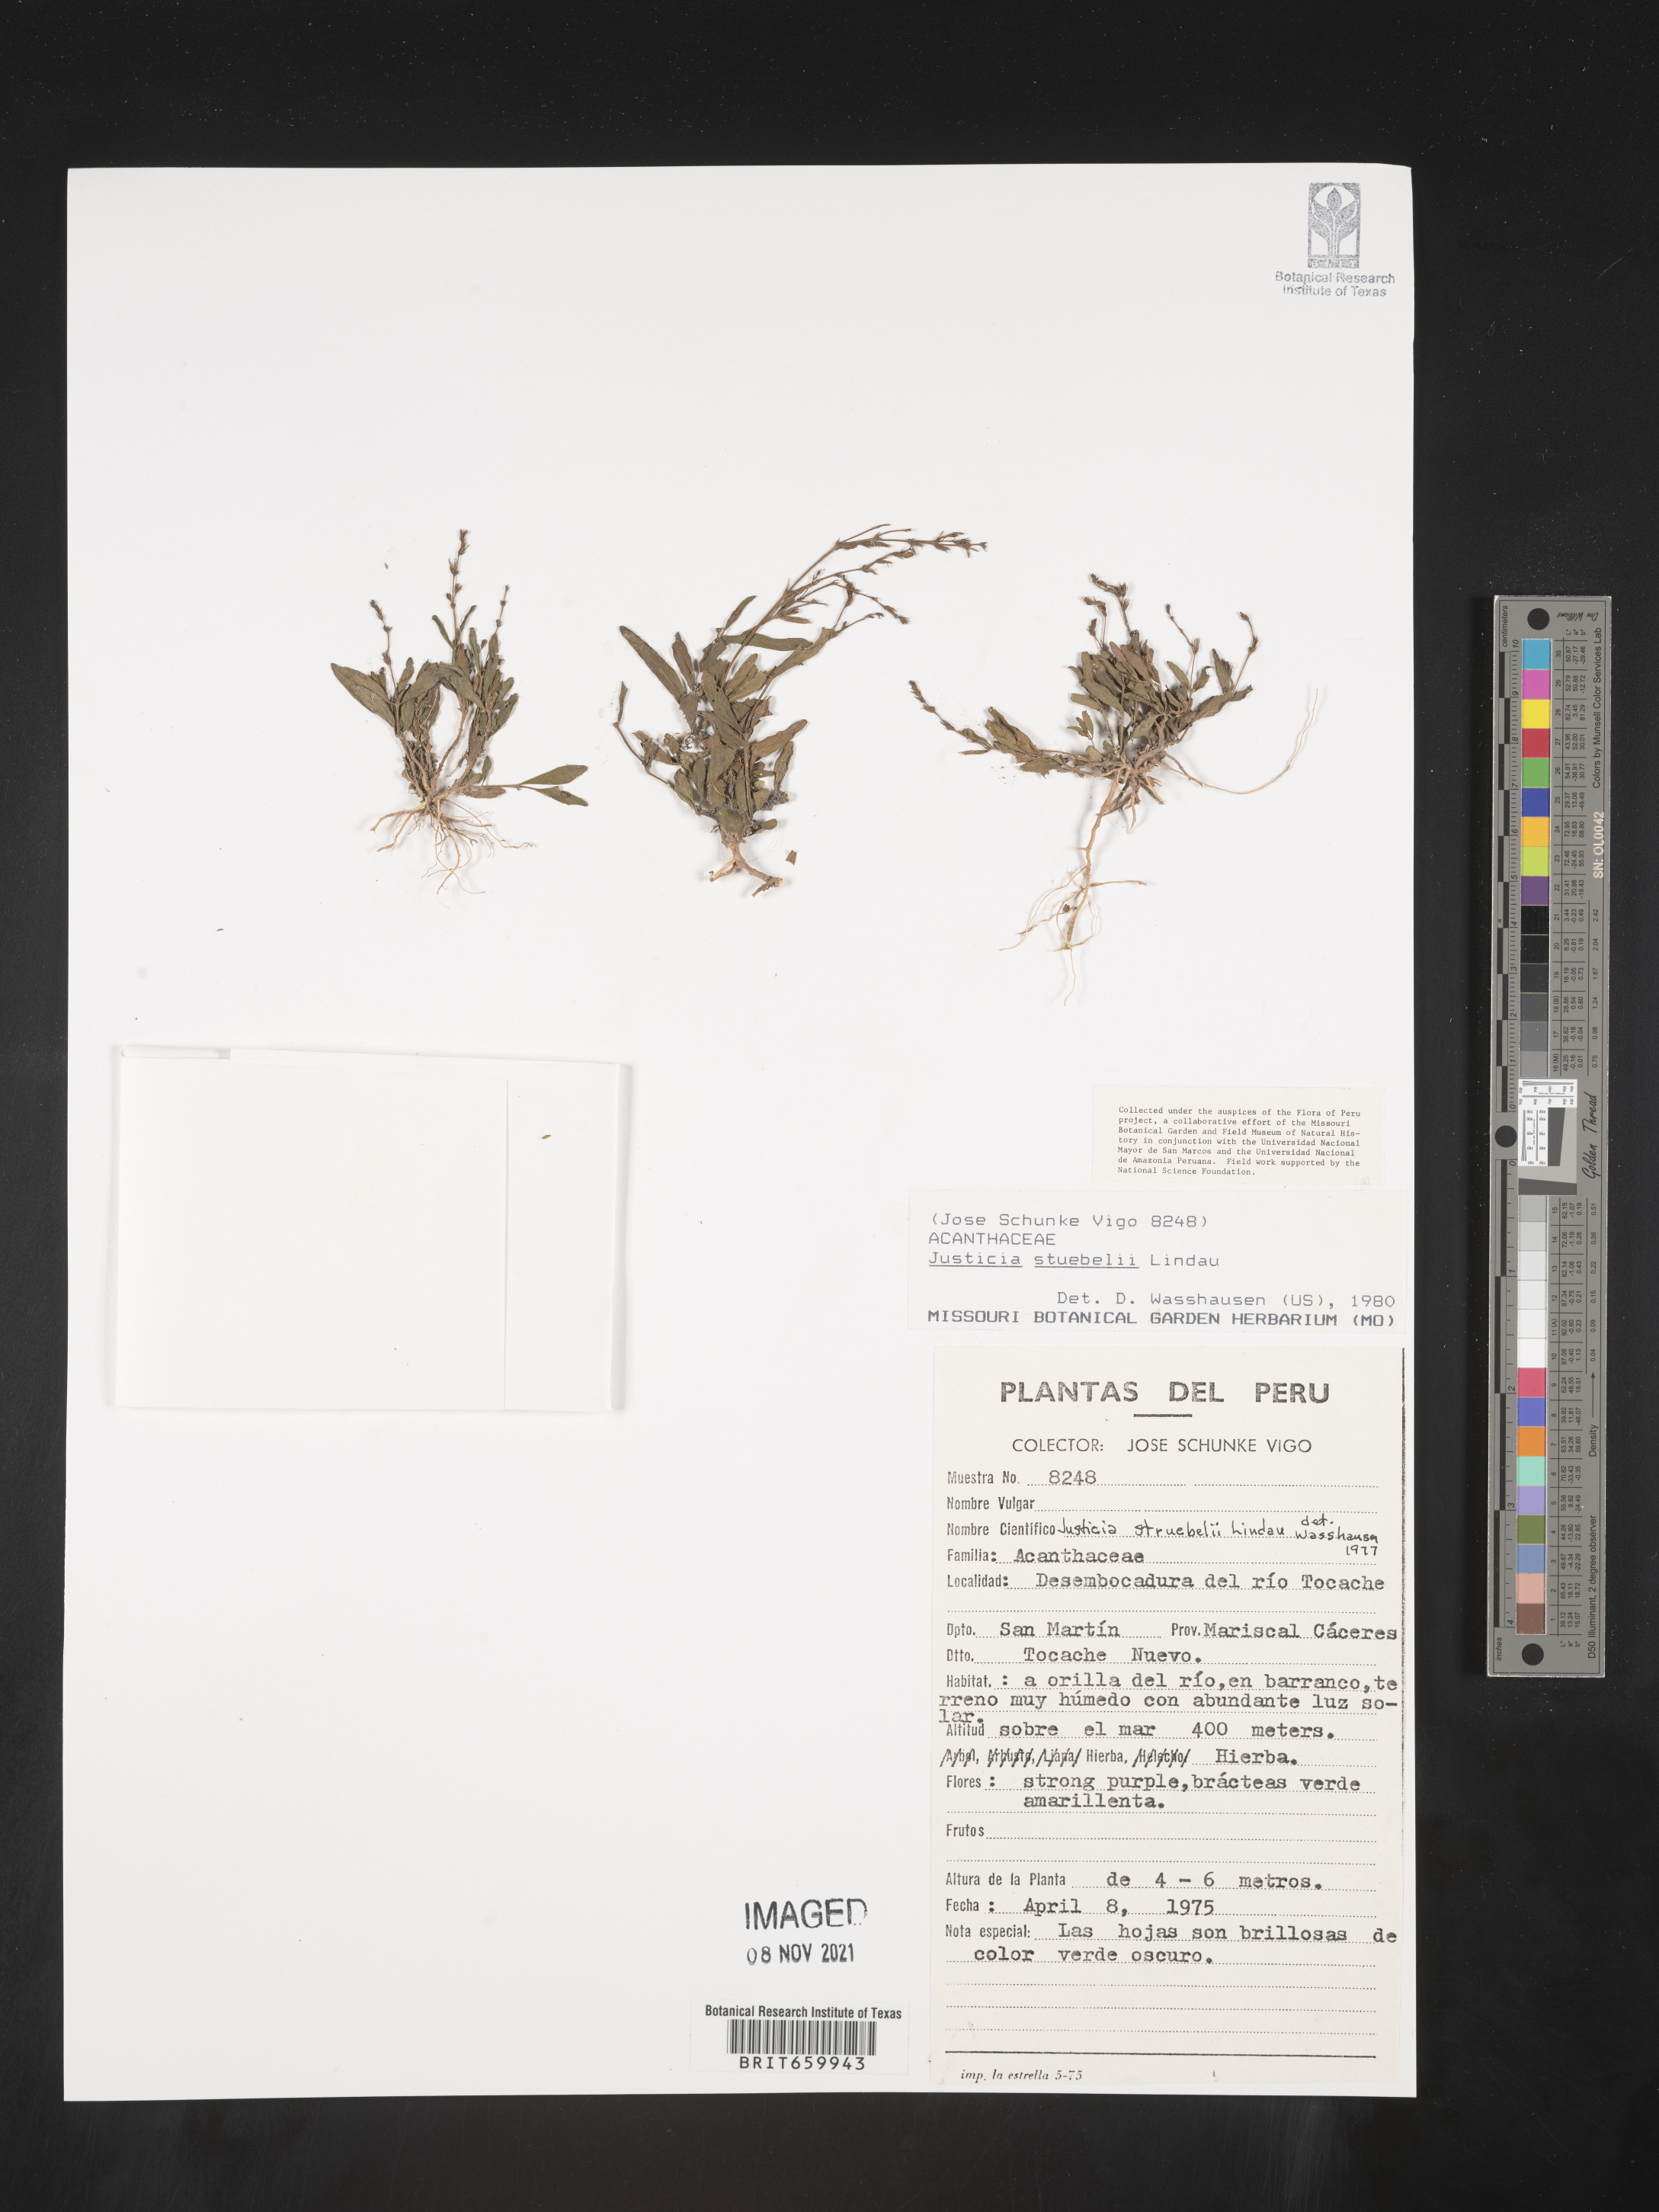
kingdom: Plantae
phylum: Tracheophyta
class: Magnoliopsida
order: Lamiales
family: Acanthaceae
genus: Dianthera
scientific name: Dianthera pectoralis
